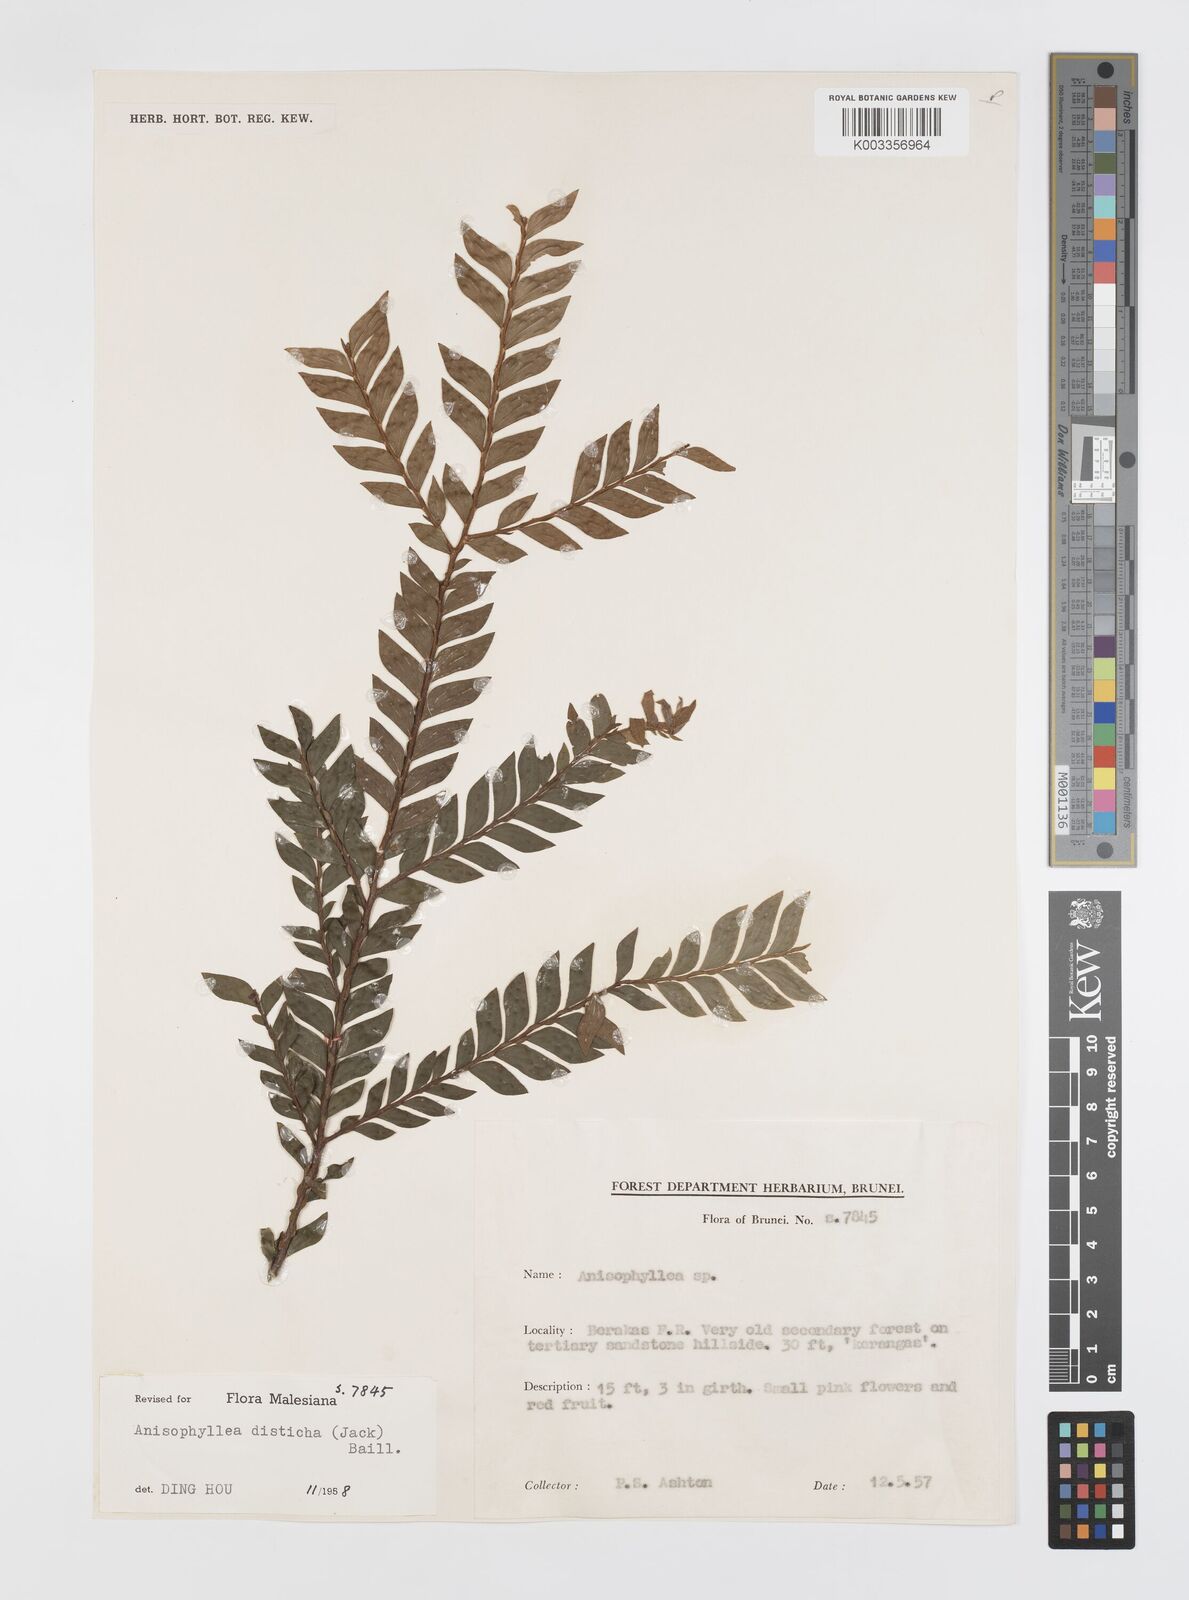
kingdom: Plantae
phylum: Tracheophyta
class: Magnoliopsida
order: Cucurbitales
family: Anisophylleaceae
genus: Anisophyllea
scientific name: Anisophyllea disticha
